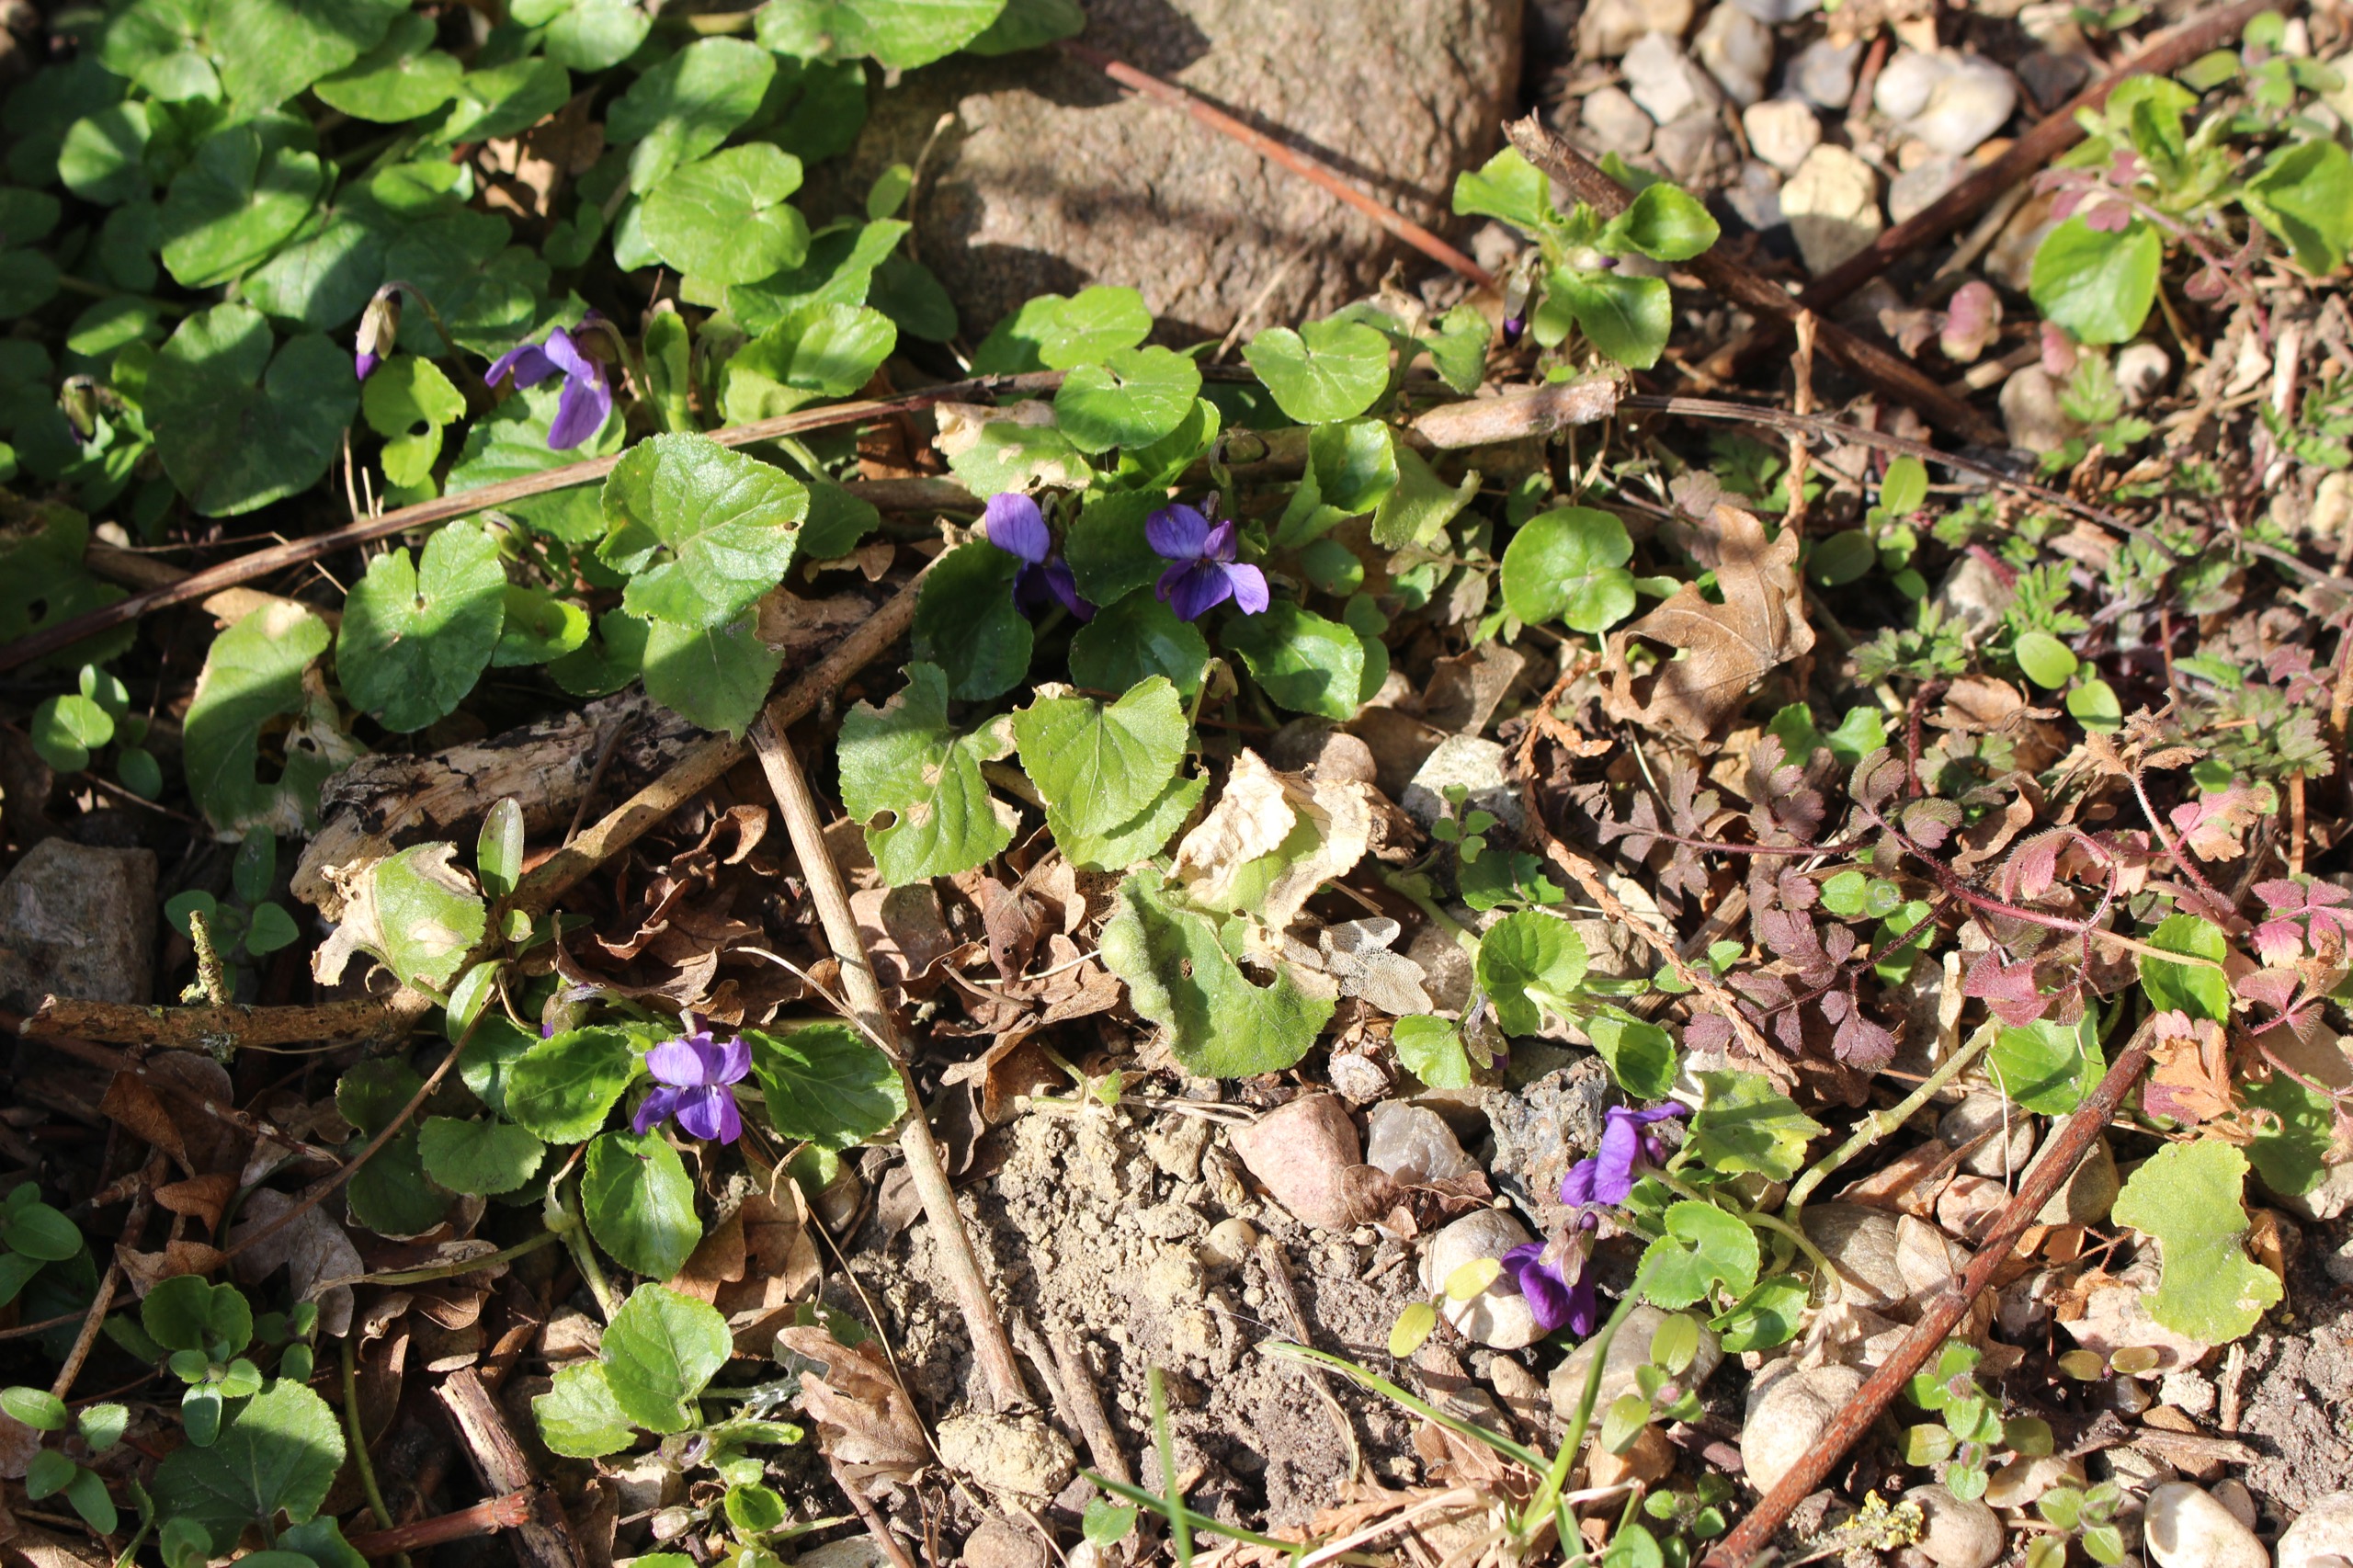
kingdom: Plantae
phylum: Tracheophyta
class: Magnoliopsida
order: Malpighiales
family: Violaceae
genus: Viola
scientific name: Viola odorata
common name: Marts-viol
